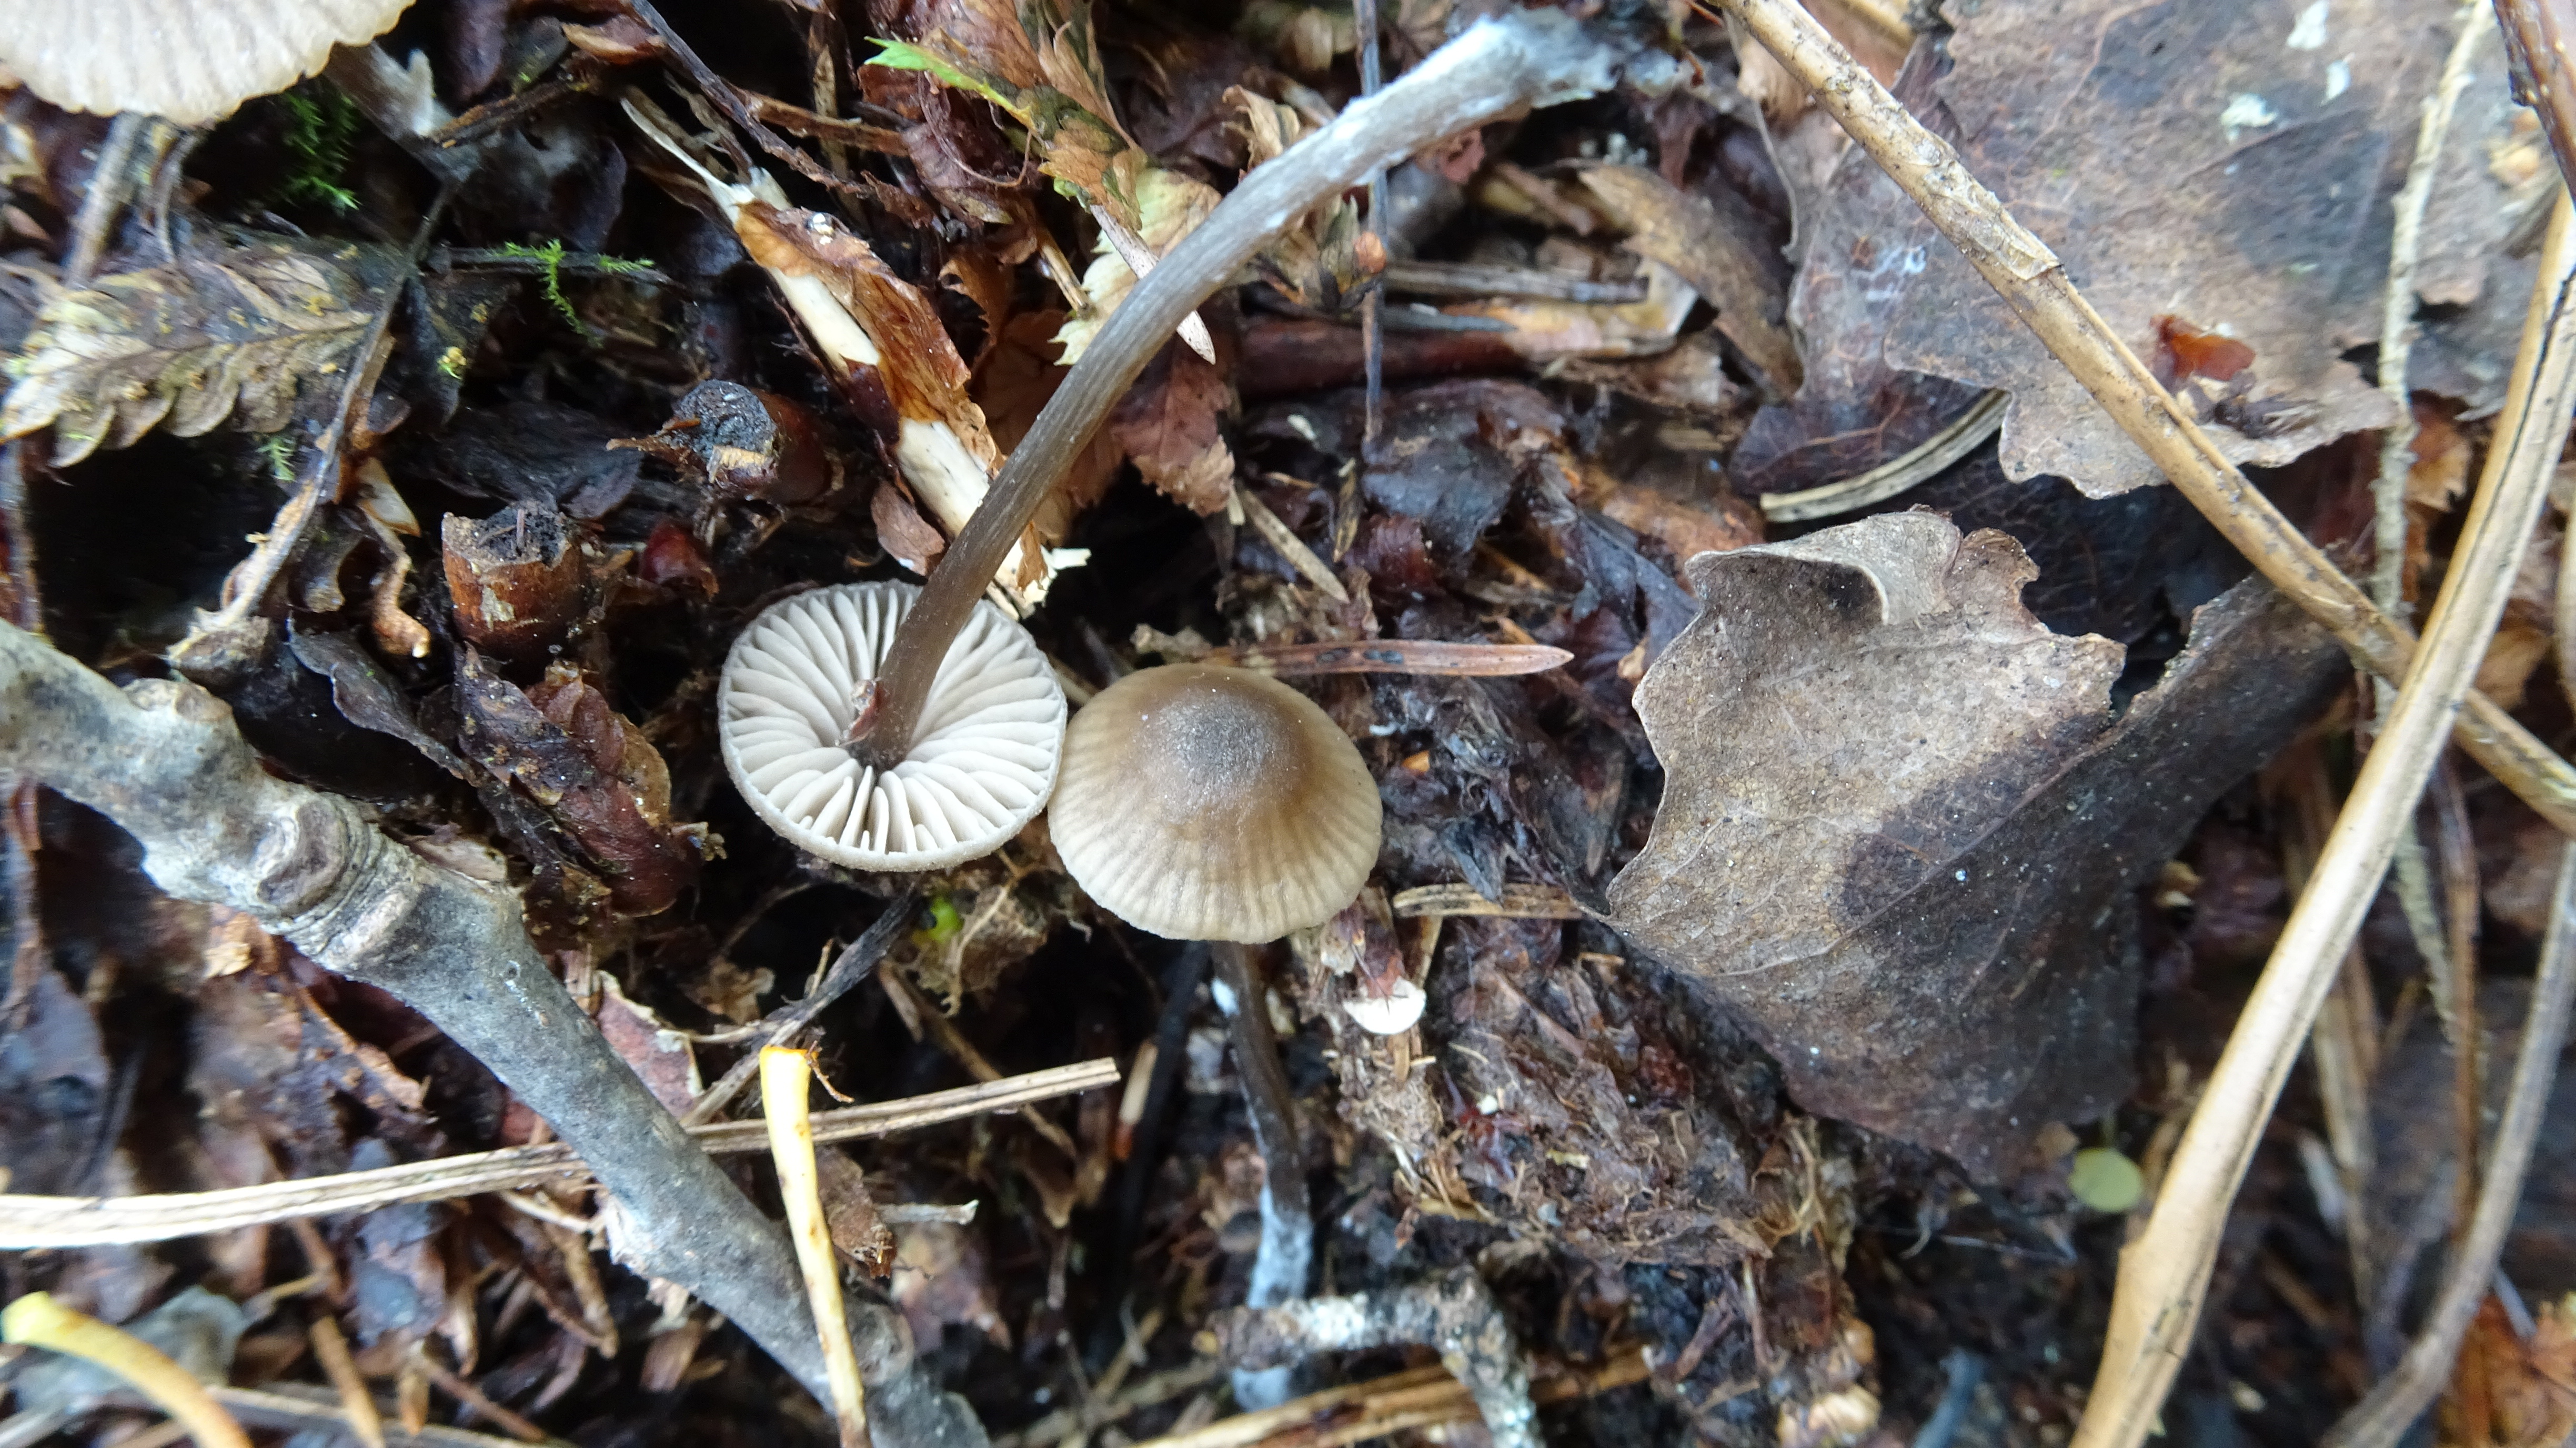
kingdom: Fungi
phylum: Basidiomycota
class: Agaricomycetes
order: Agaricales
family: Entolomataceae
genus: Entoloma
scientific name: Entoloma
